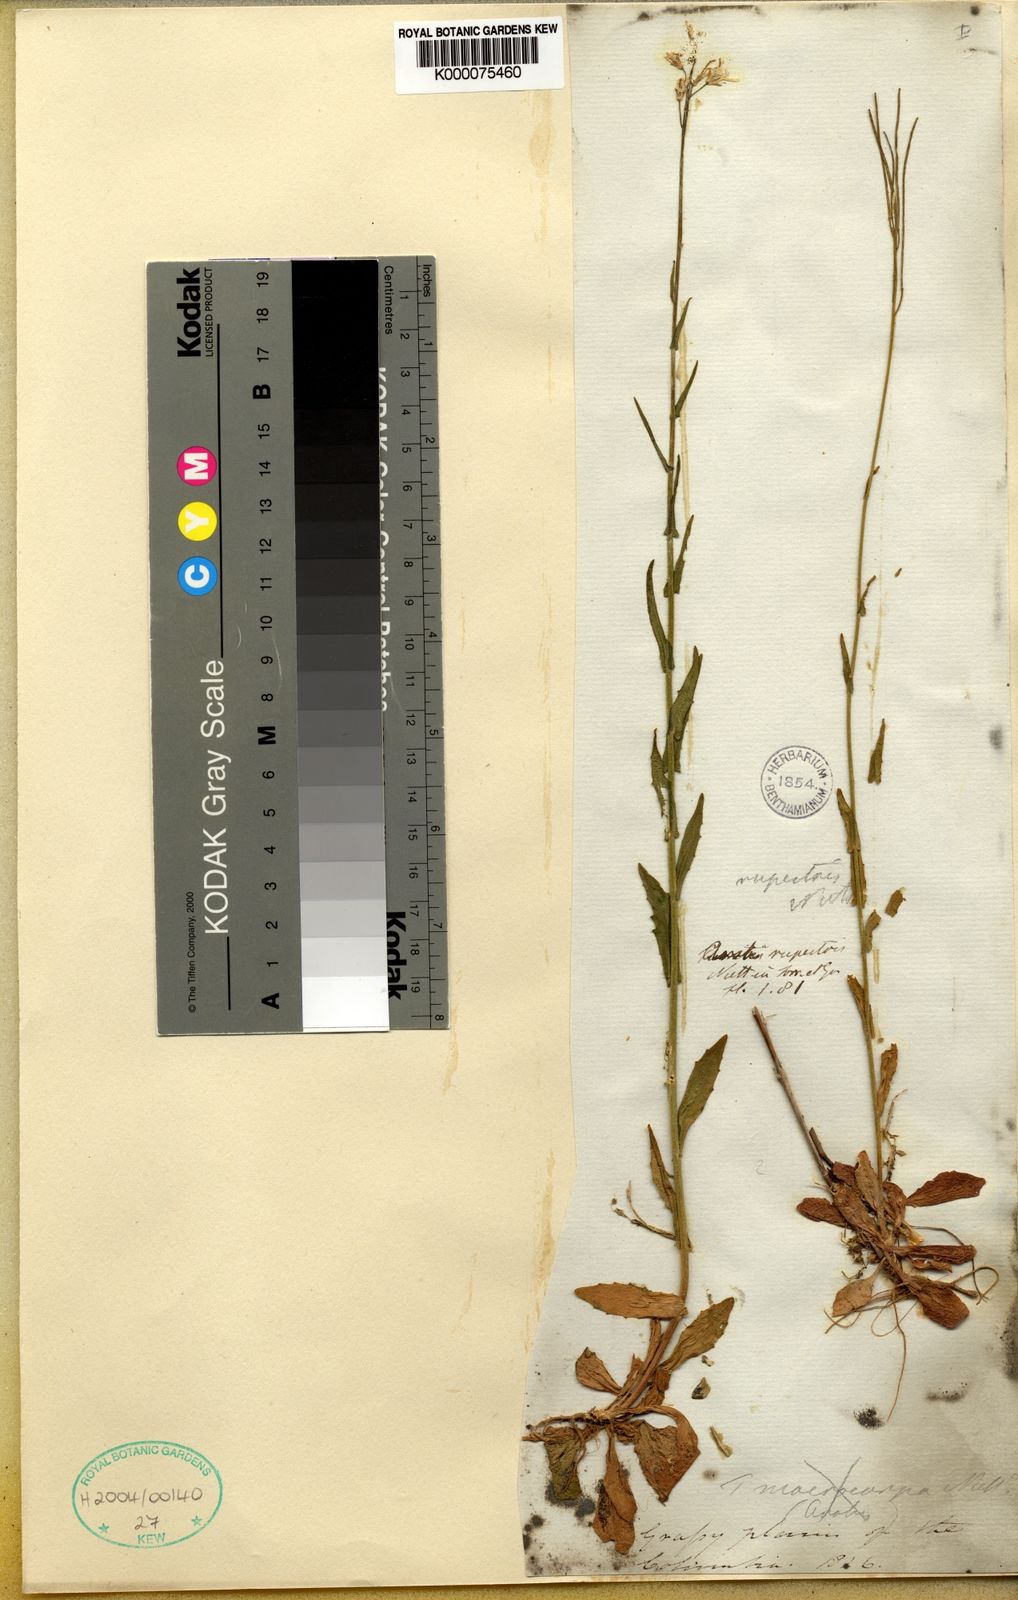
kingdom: Plantae
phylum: Tracheophyta
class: Magnoliopsida
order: Brassicales
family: Brassicaceae
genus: Arabis
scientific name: Arabis
